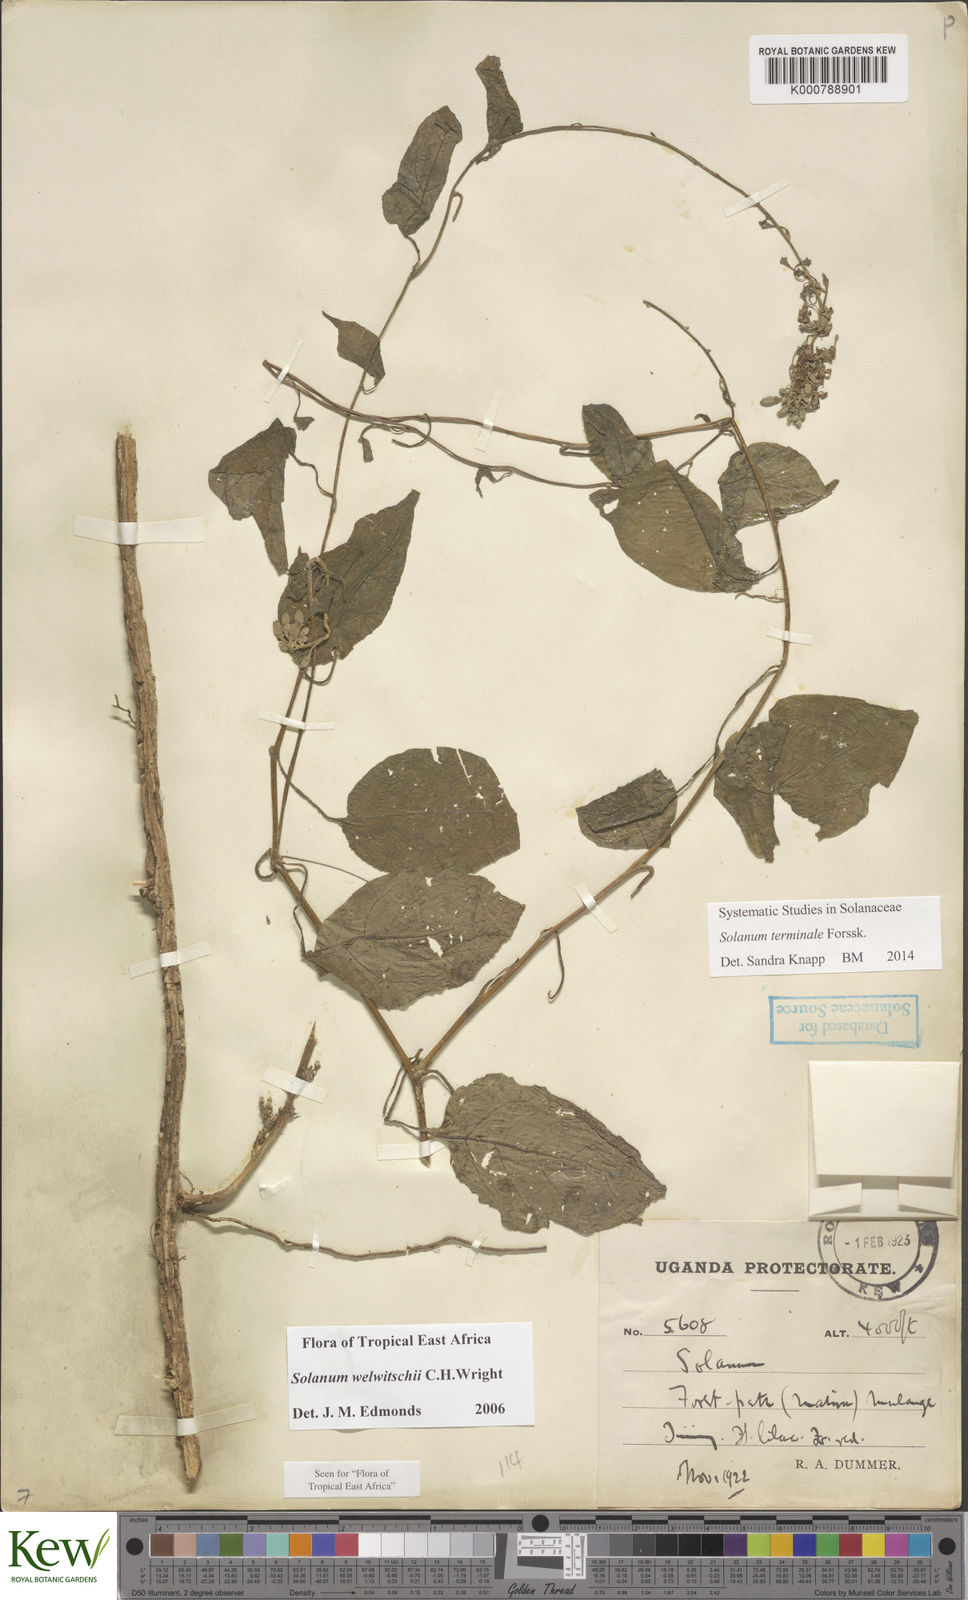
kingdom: Plantae
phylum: Tracheophyta
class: Magnoliopsida
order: Solanales
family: Solanaceae
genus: Solanum
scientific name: Solanum terminale
